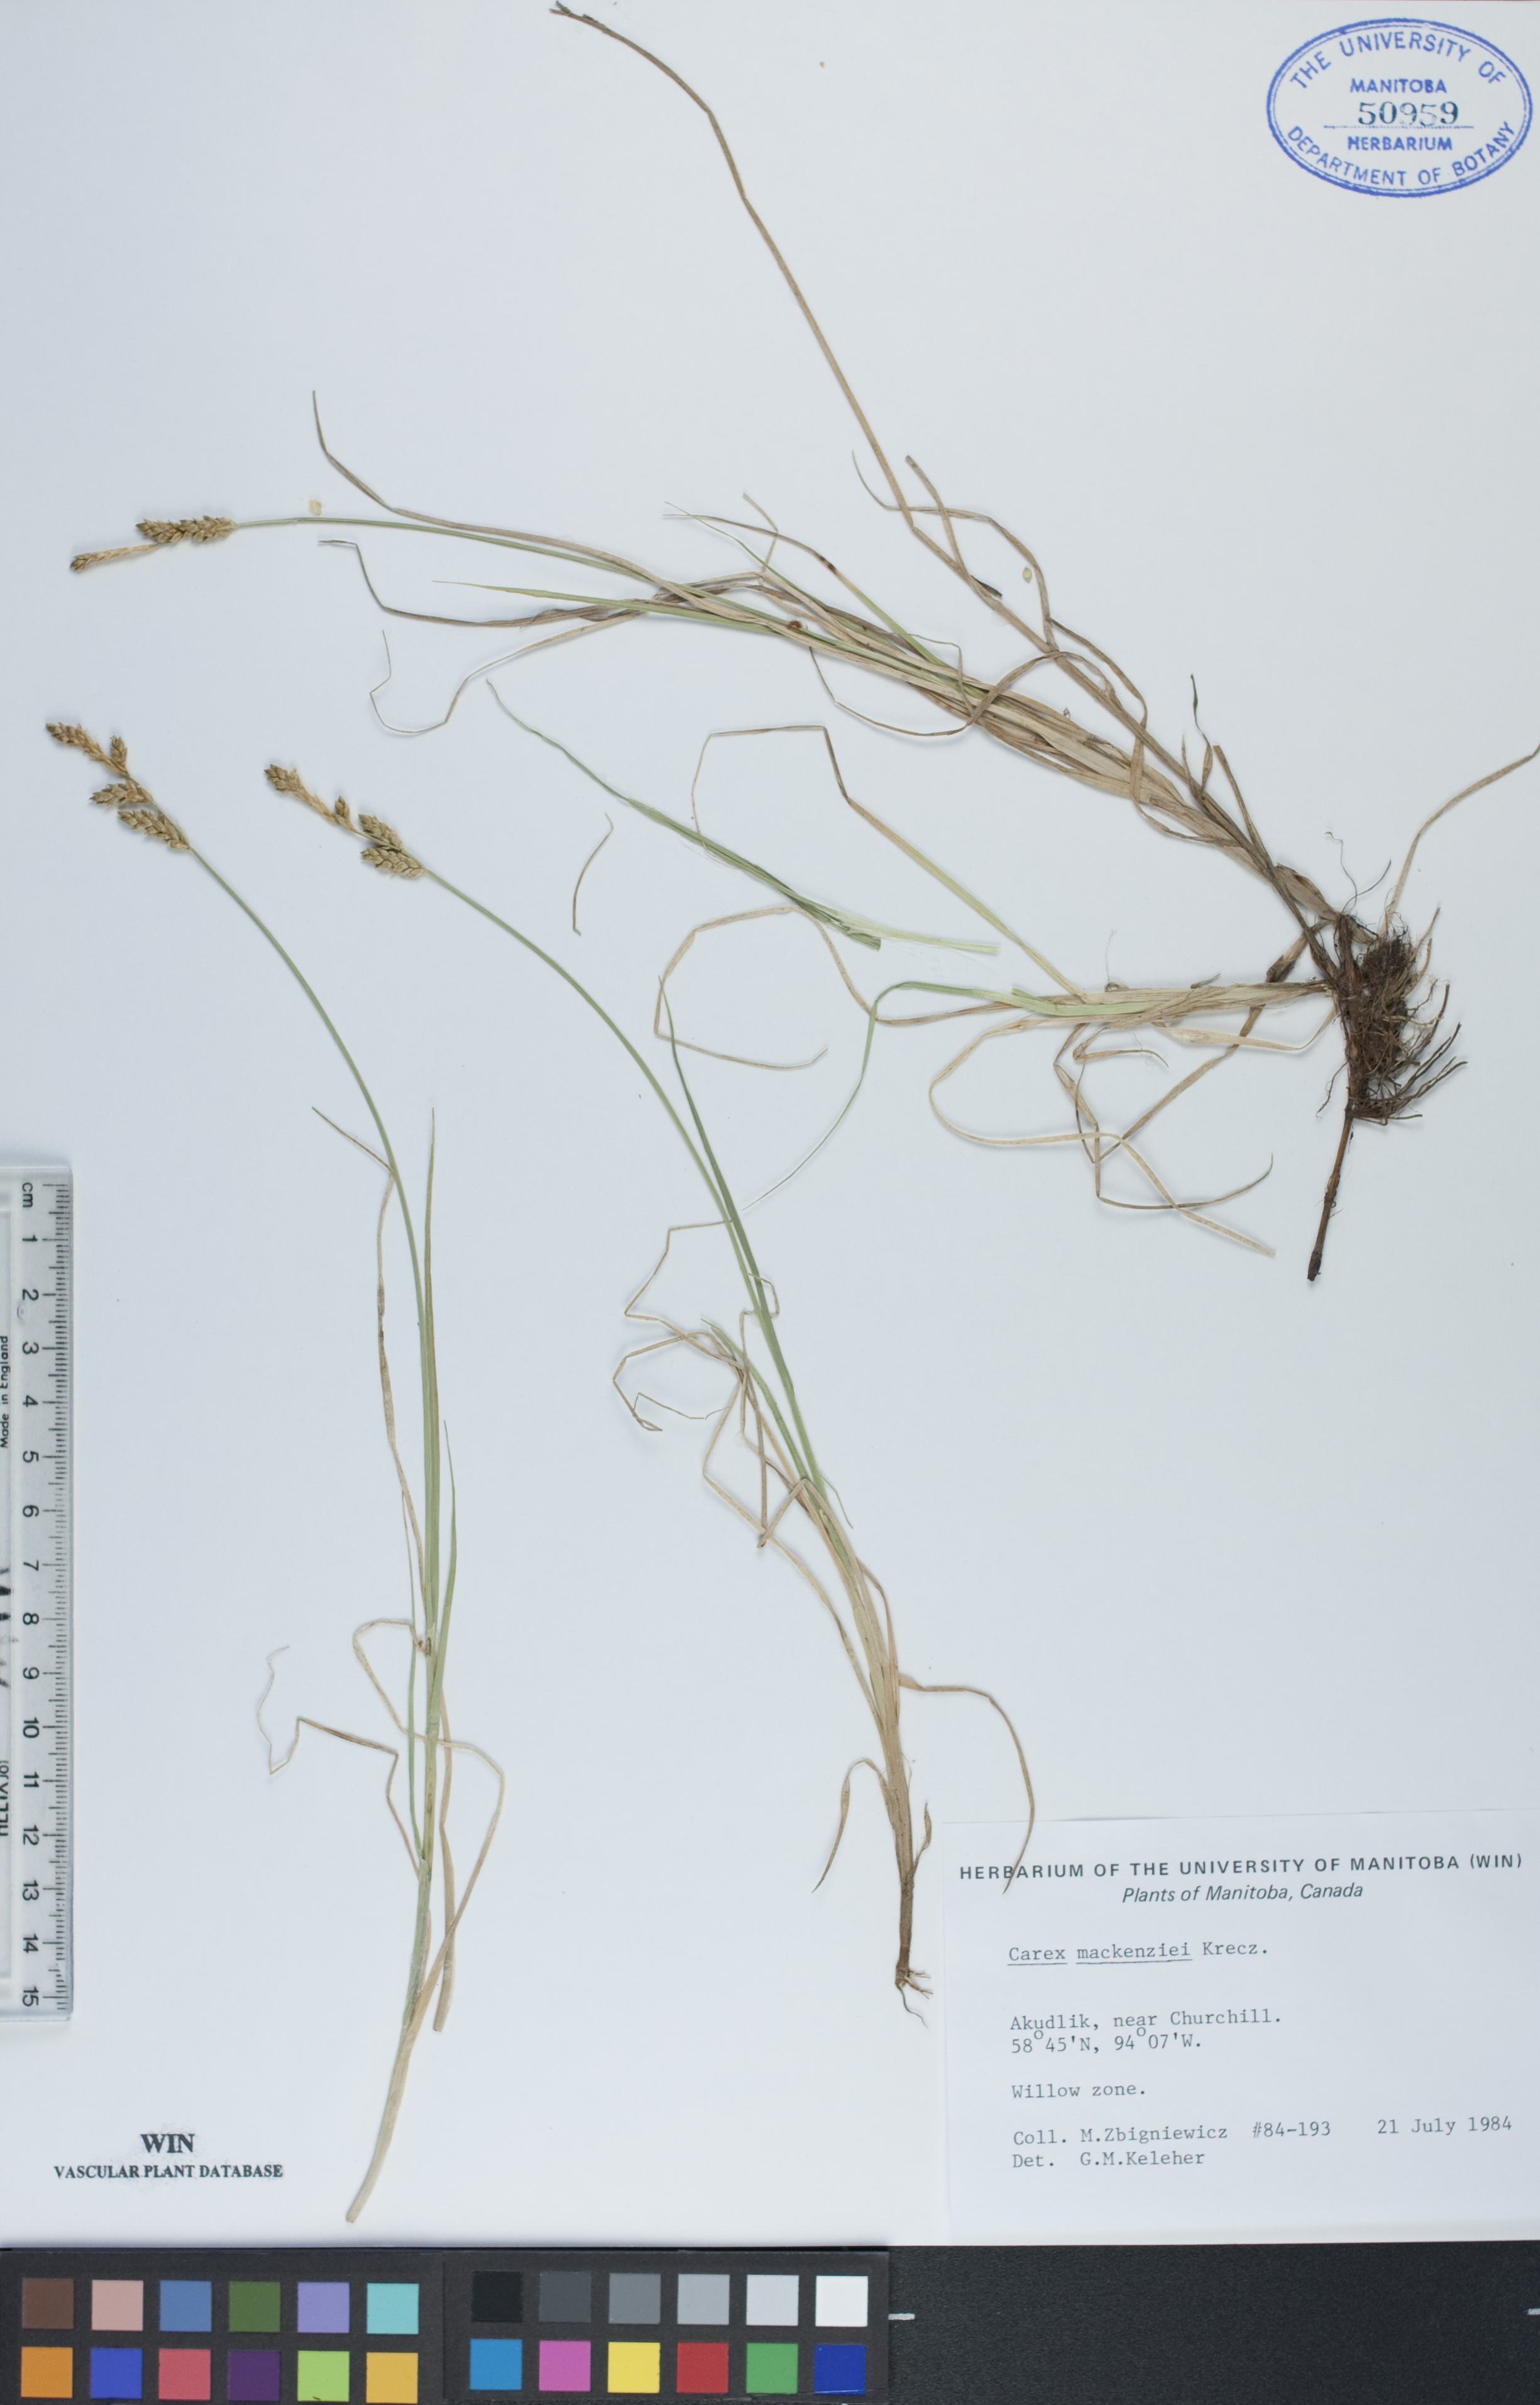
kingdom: Plantae
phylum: Tracheophyta
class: Liliopsida
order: Poales
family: Cyperaceae
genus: Carex
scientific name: Carex mackenziei
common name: Mackenzie's sedge
